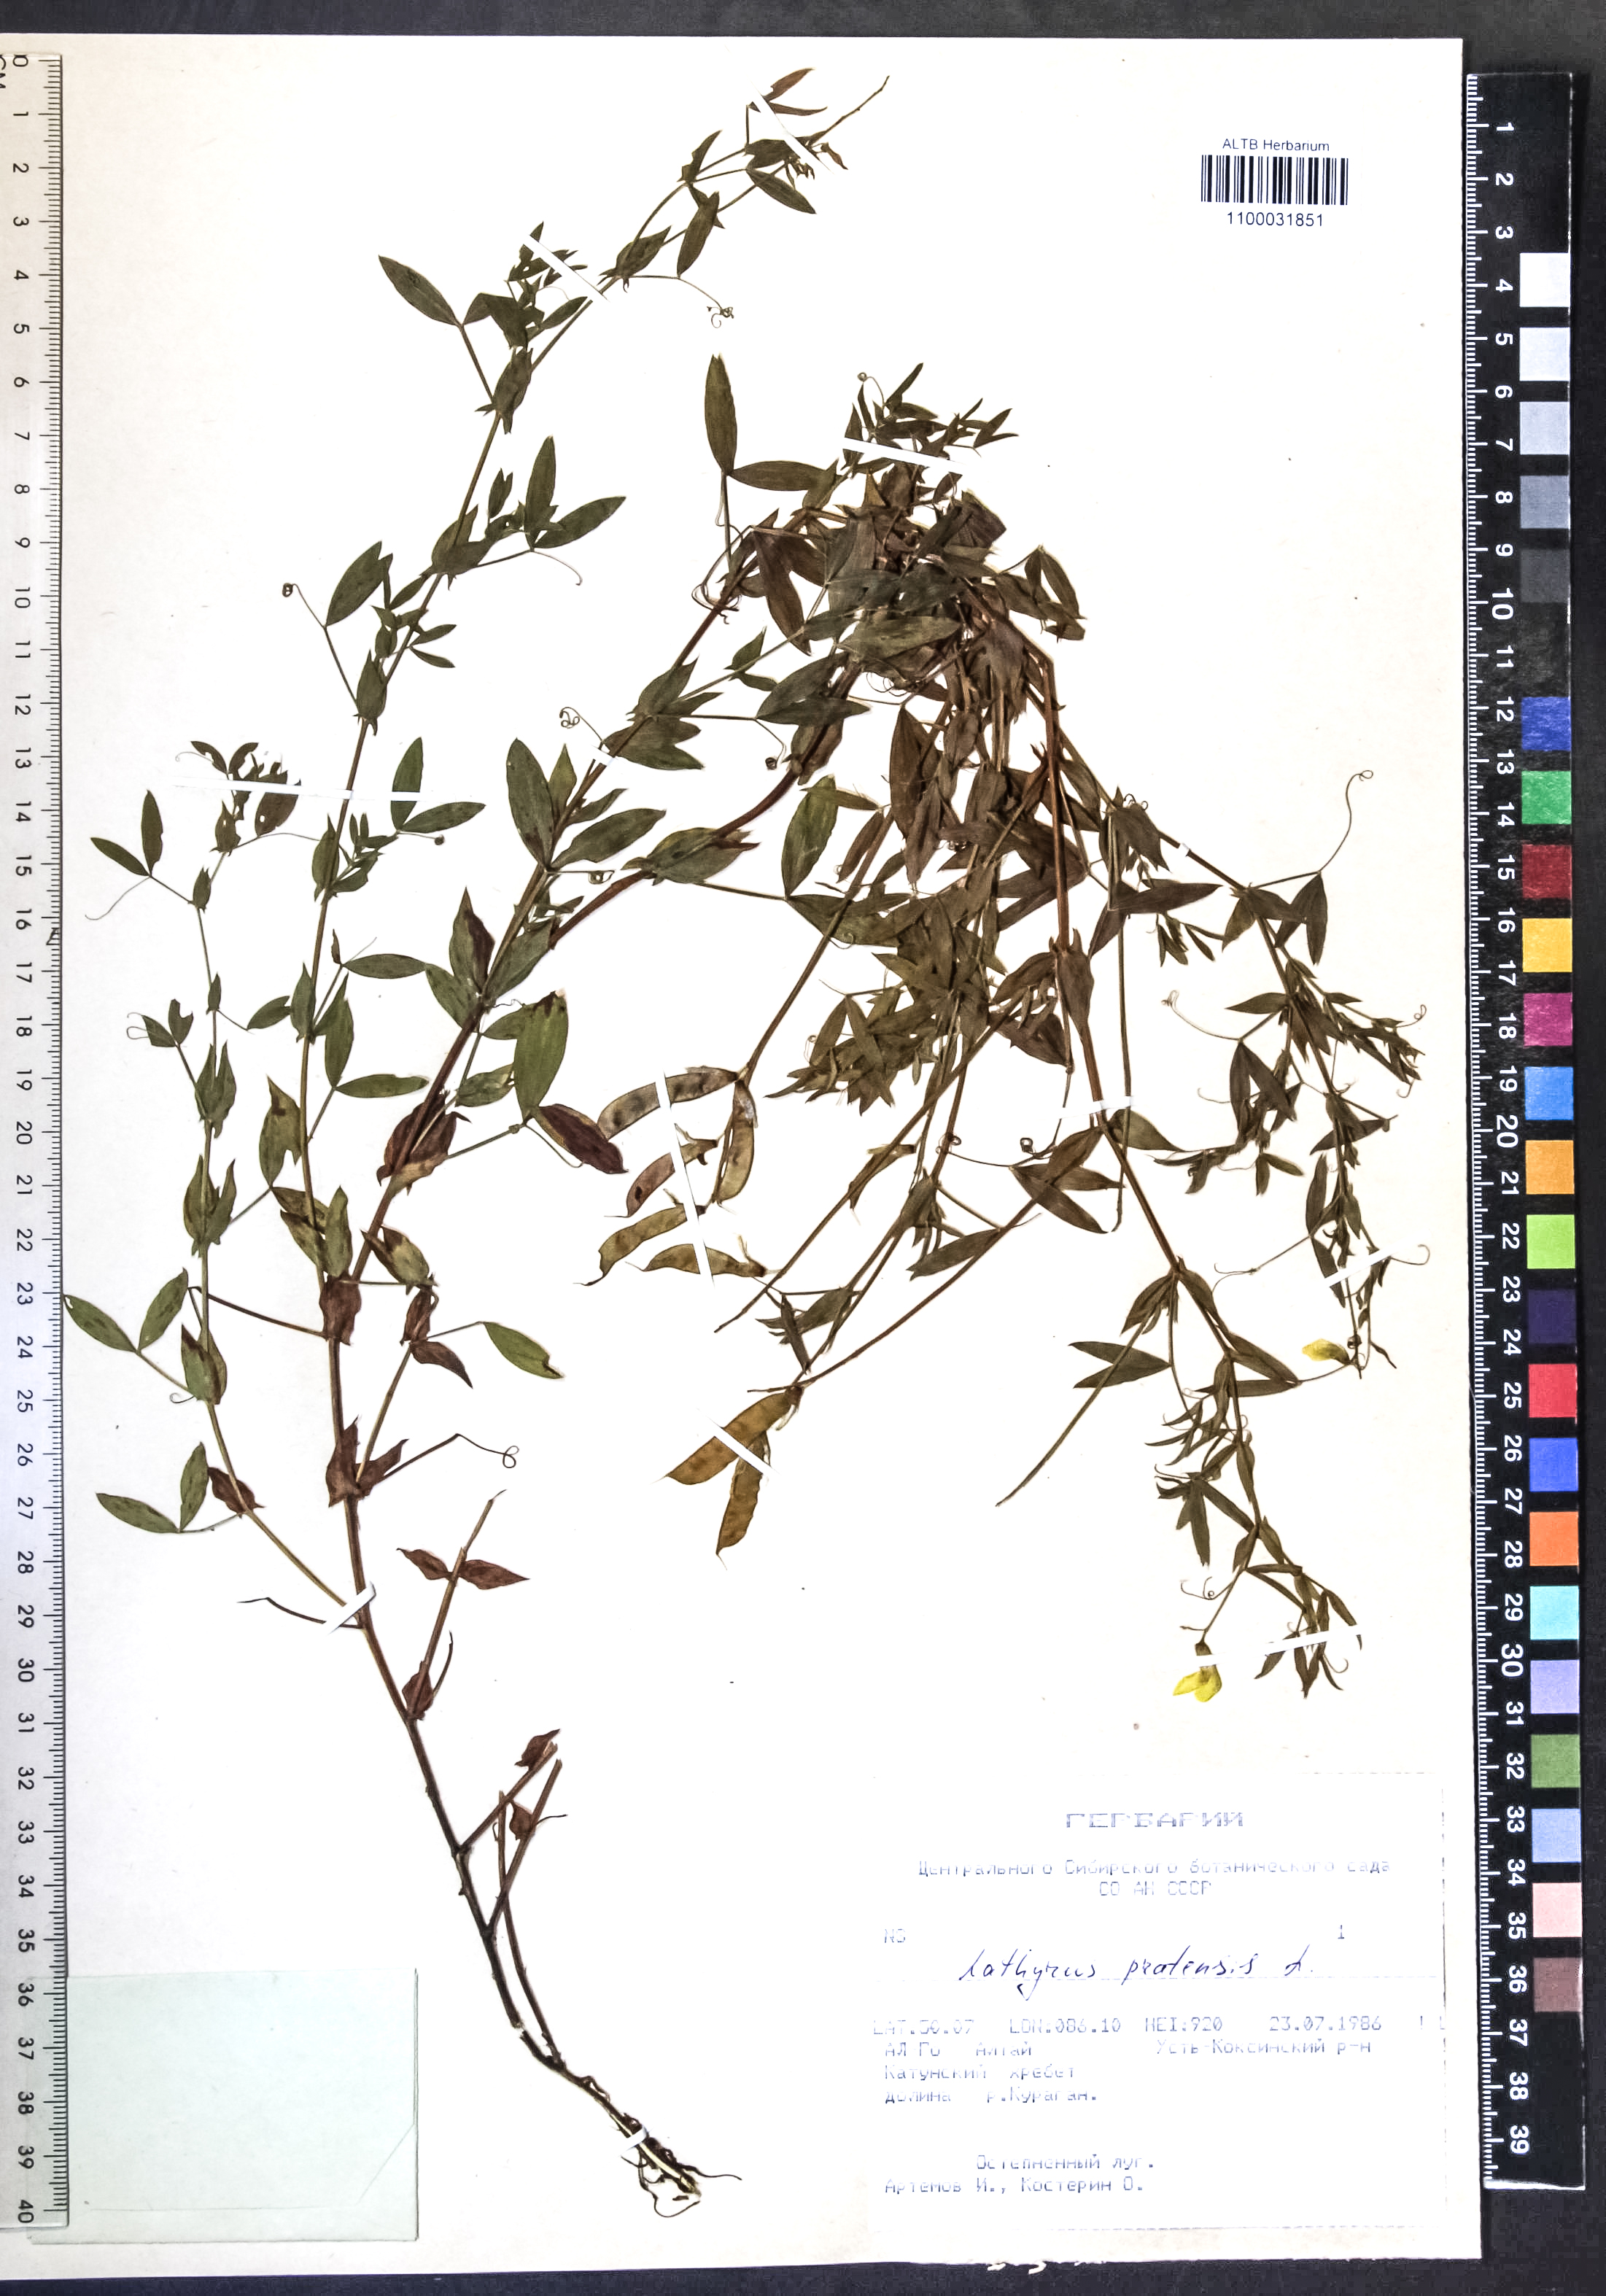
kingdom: Plantae
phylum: Tracheophyta
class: Magnoliopsida
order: Fabales
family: Fabaceae
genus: Lathyrus
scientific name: Lathyrus pratensis
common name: Meadow vetchling
